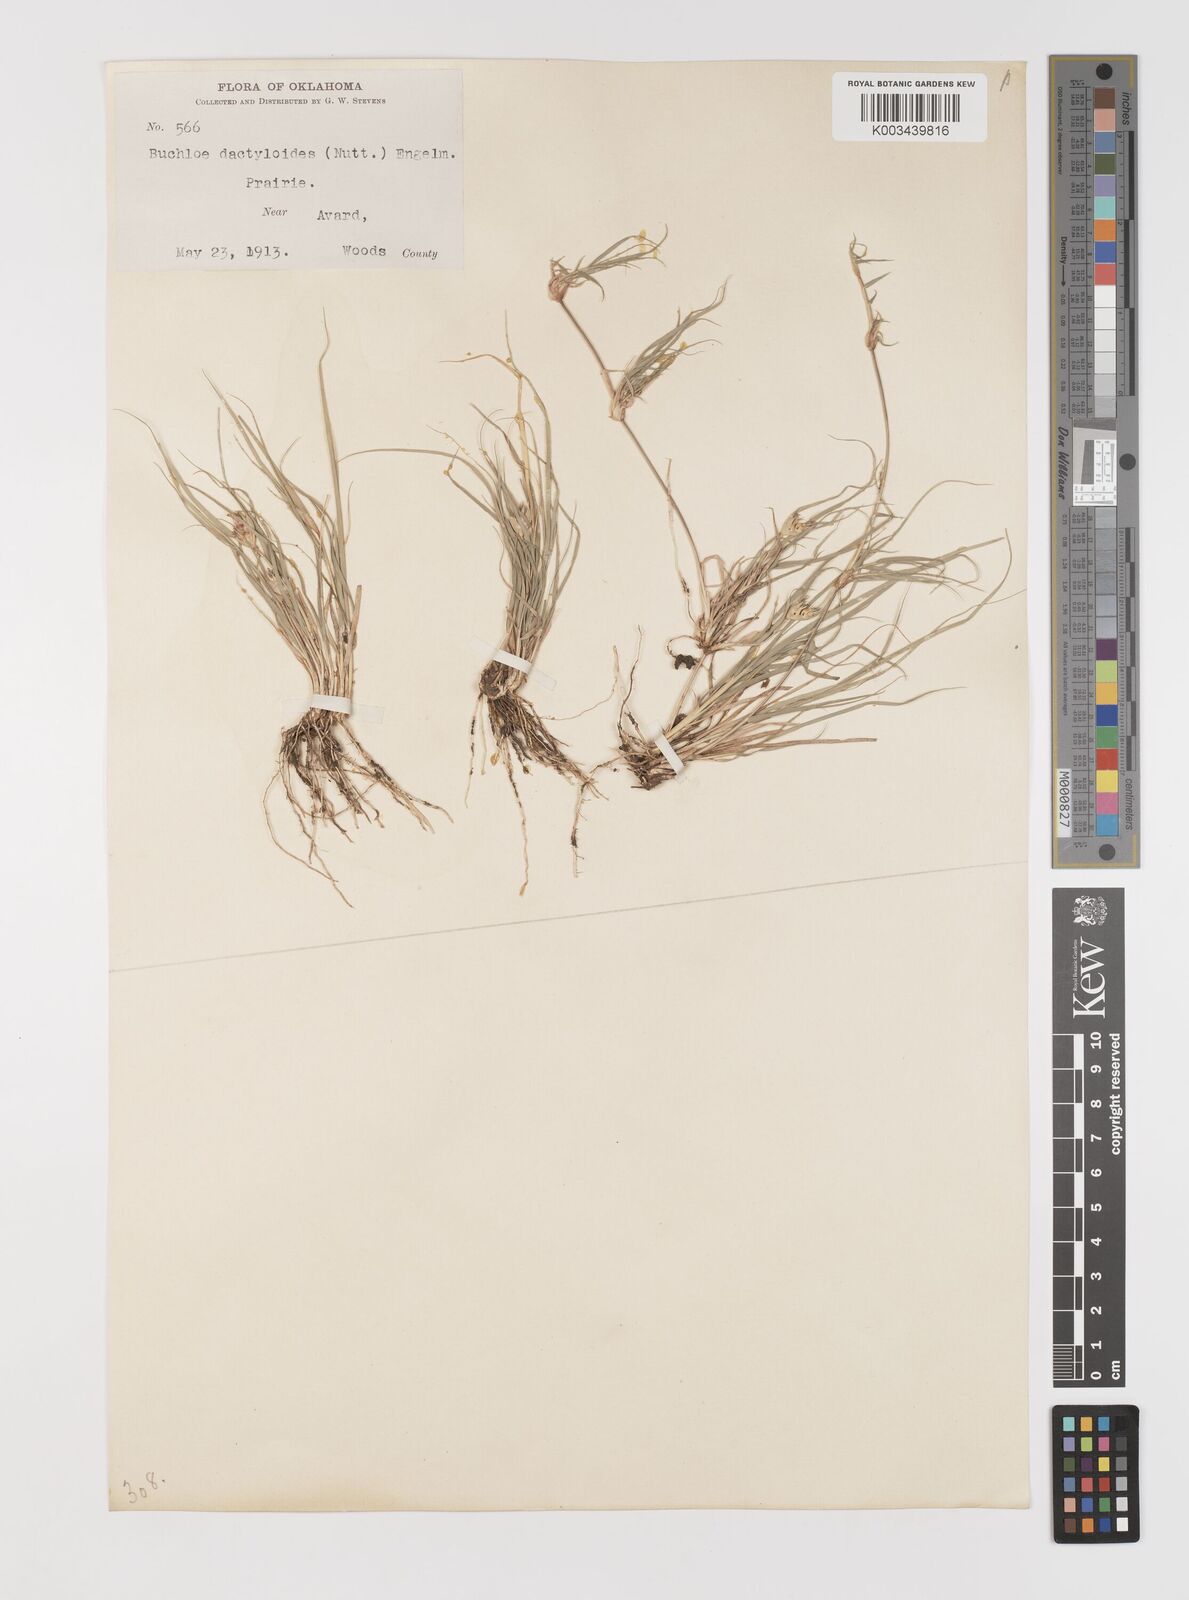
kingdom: Plantae
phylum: Tracheophyta
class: Liliopsida
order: Poales
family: Poaceae
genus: Bouteloua
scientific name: Bouteloua dactyloides
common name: Buffalo grass
